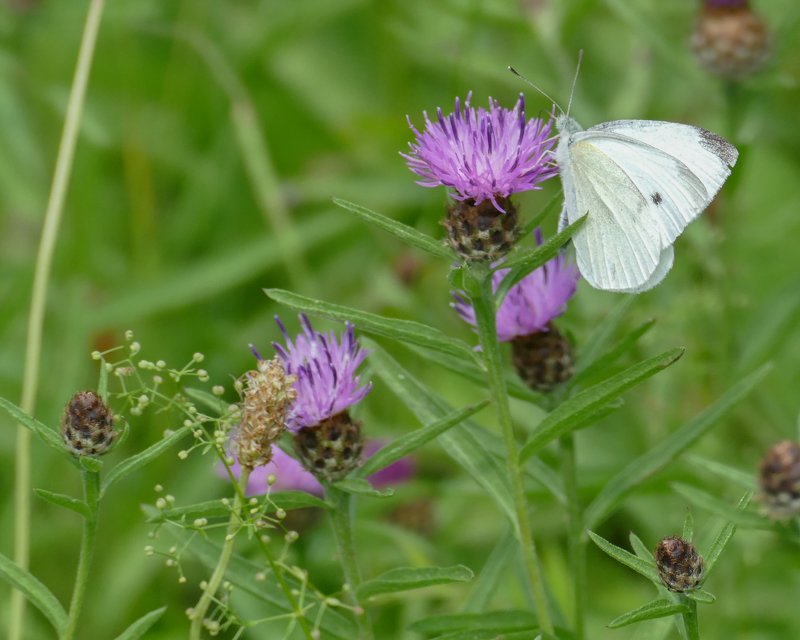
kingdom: Animalia
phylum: Arthropoda
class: Insecta
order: Lepidoptera
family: Pieridae
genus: Pieris
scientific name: Pieris rapae
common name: Cabbage White
